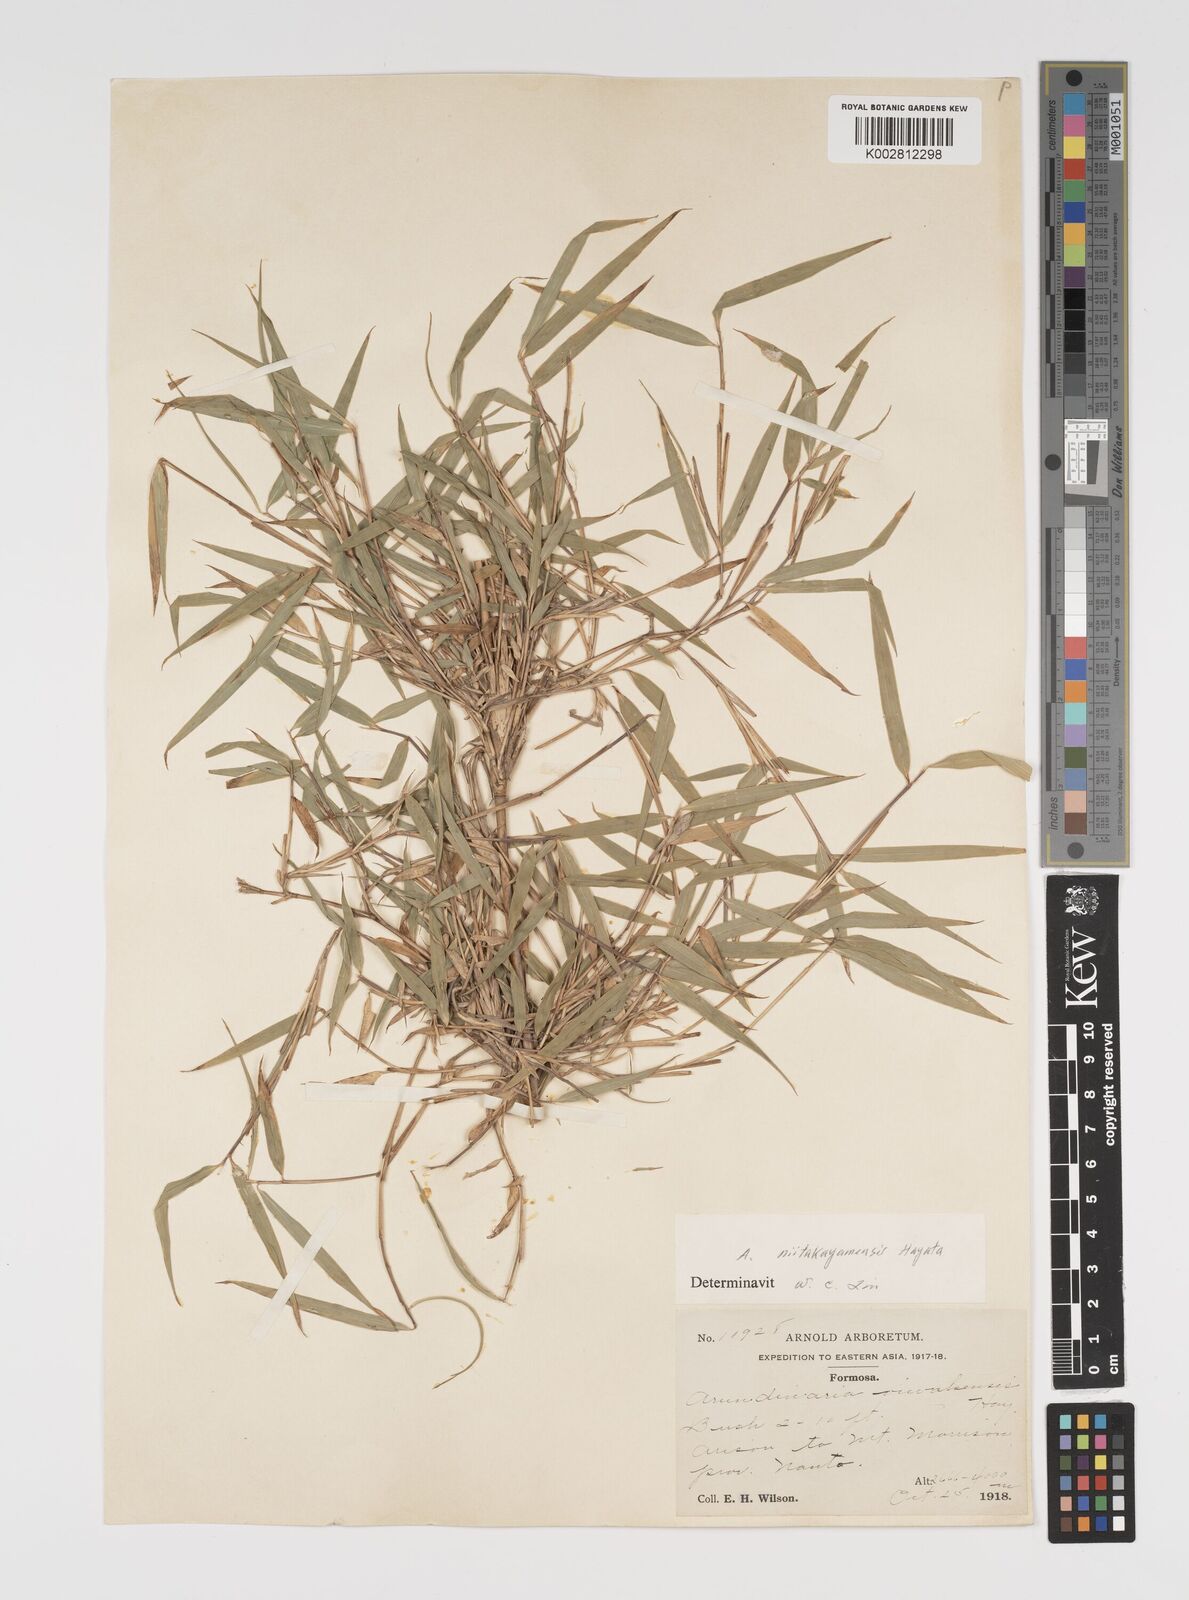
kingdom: Plantae
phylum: Tracheophyta
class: Liliopsida
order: Poales
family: Poaceae
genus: Yushania
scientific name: Yushania niitakayamensis
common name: Yushan cane
